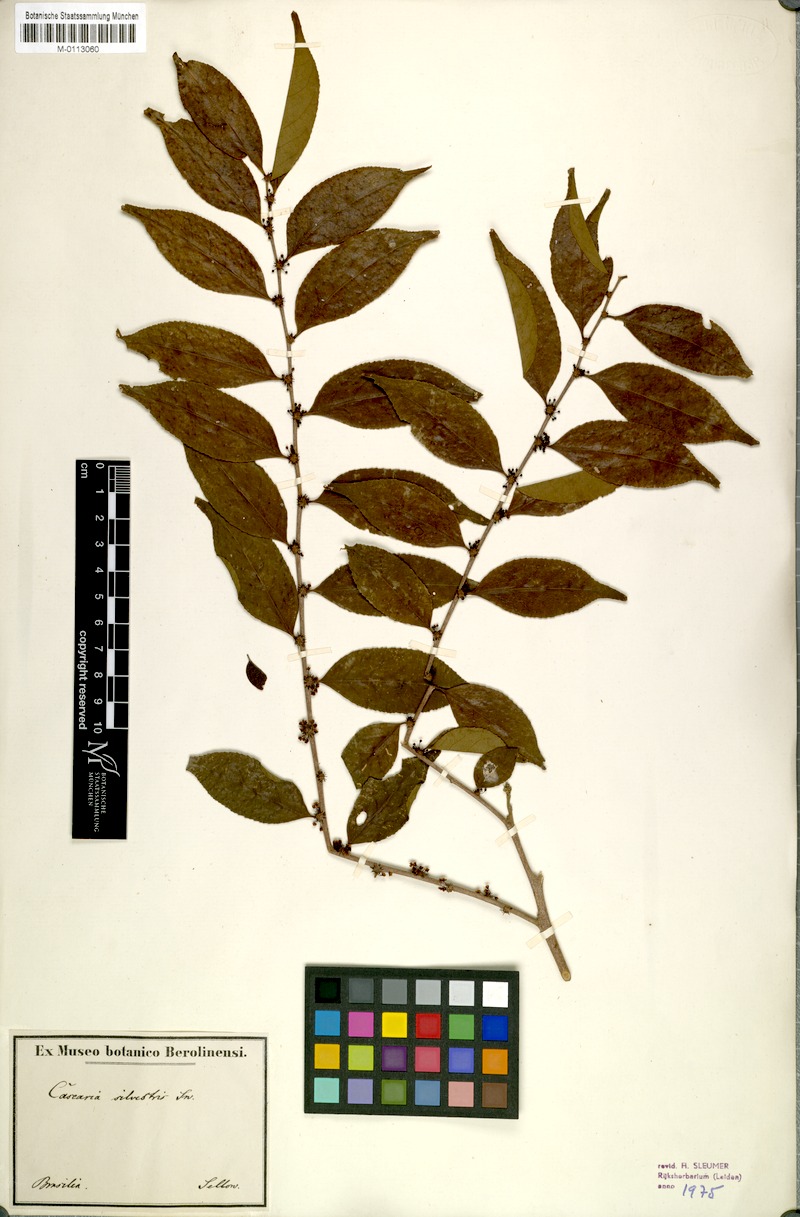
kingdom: Plantae
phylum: Tracheophyta
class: Magnoliopsida
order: Malpighiales
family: Salicaceae
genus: Casearia
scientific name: Casearia sylvestris
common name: Wild sage
